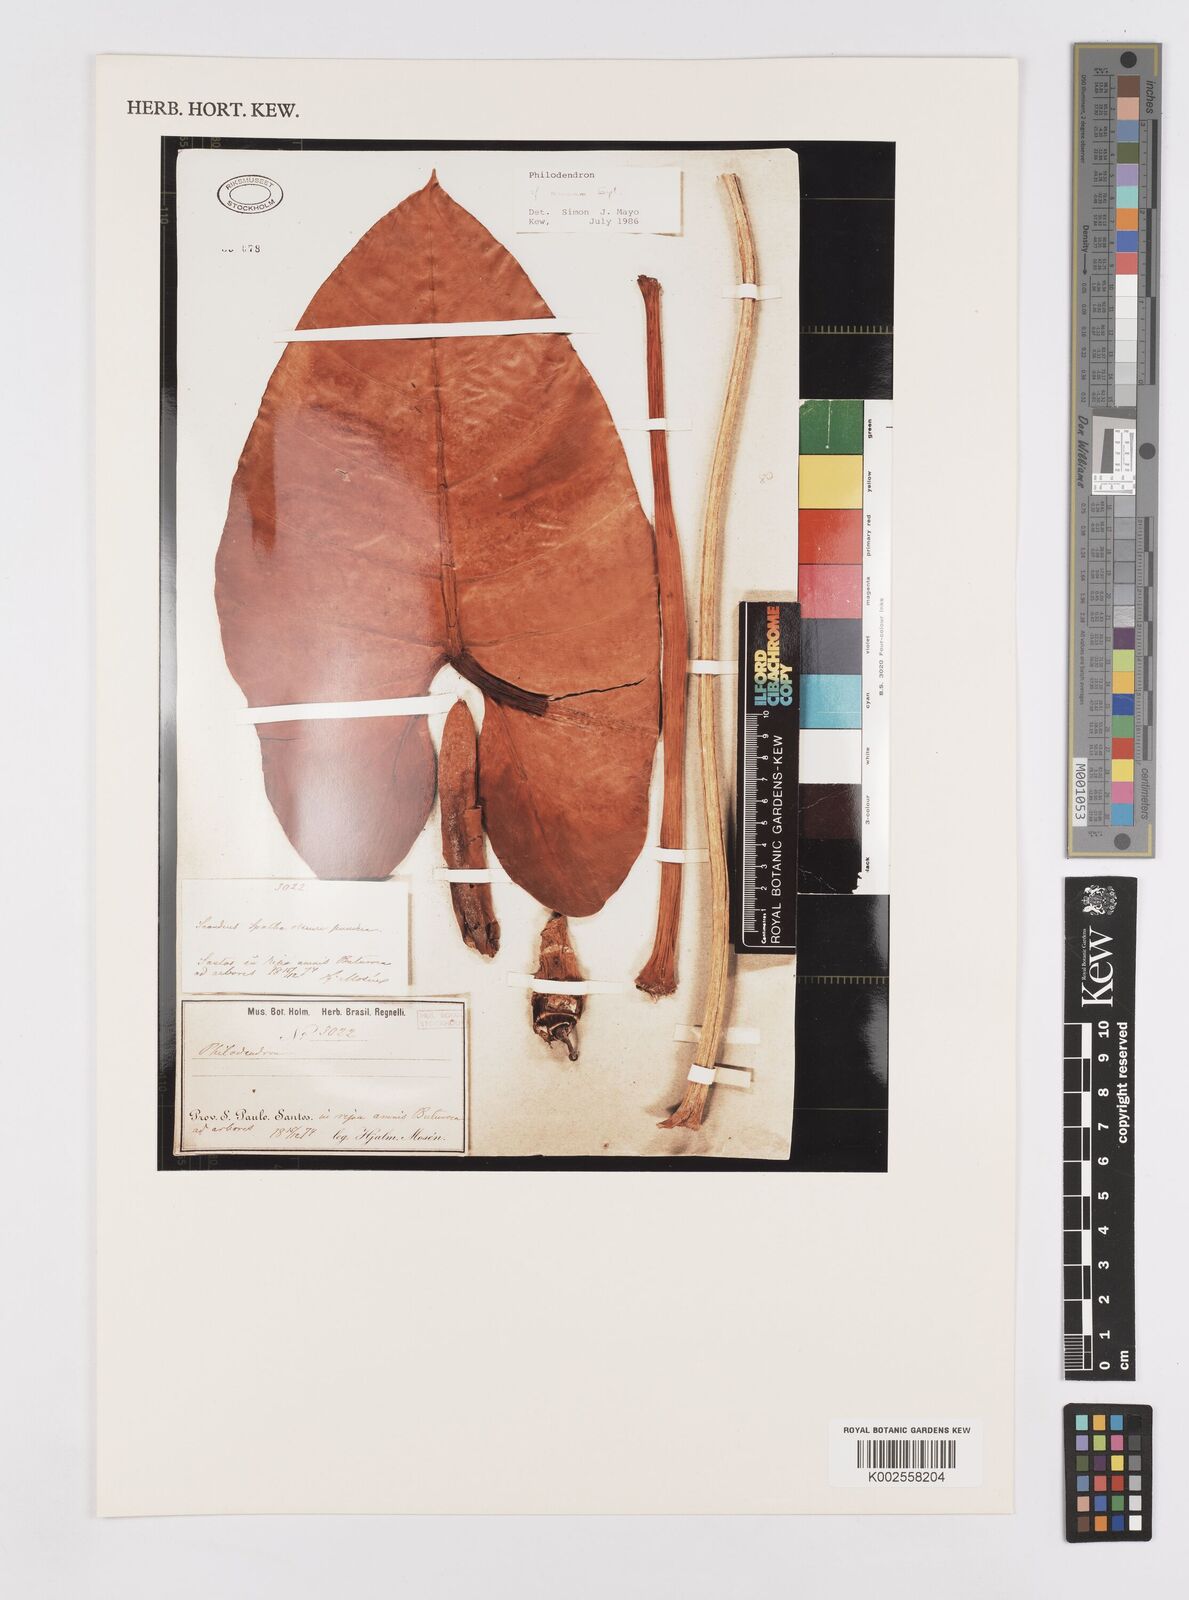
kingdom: Plantae
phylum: Tracheophyta
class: Liliopsida
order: Alismatales
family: Araceae
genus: Philodendron
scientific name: Philodendron minarum
